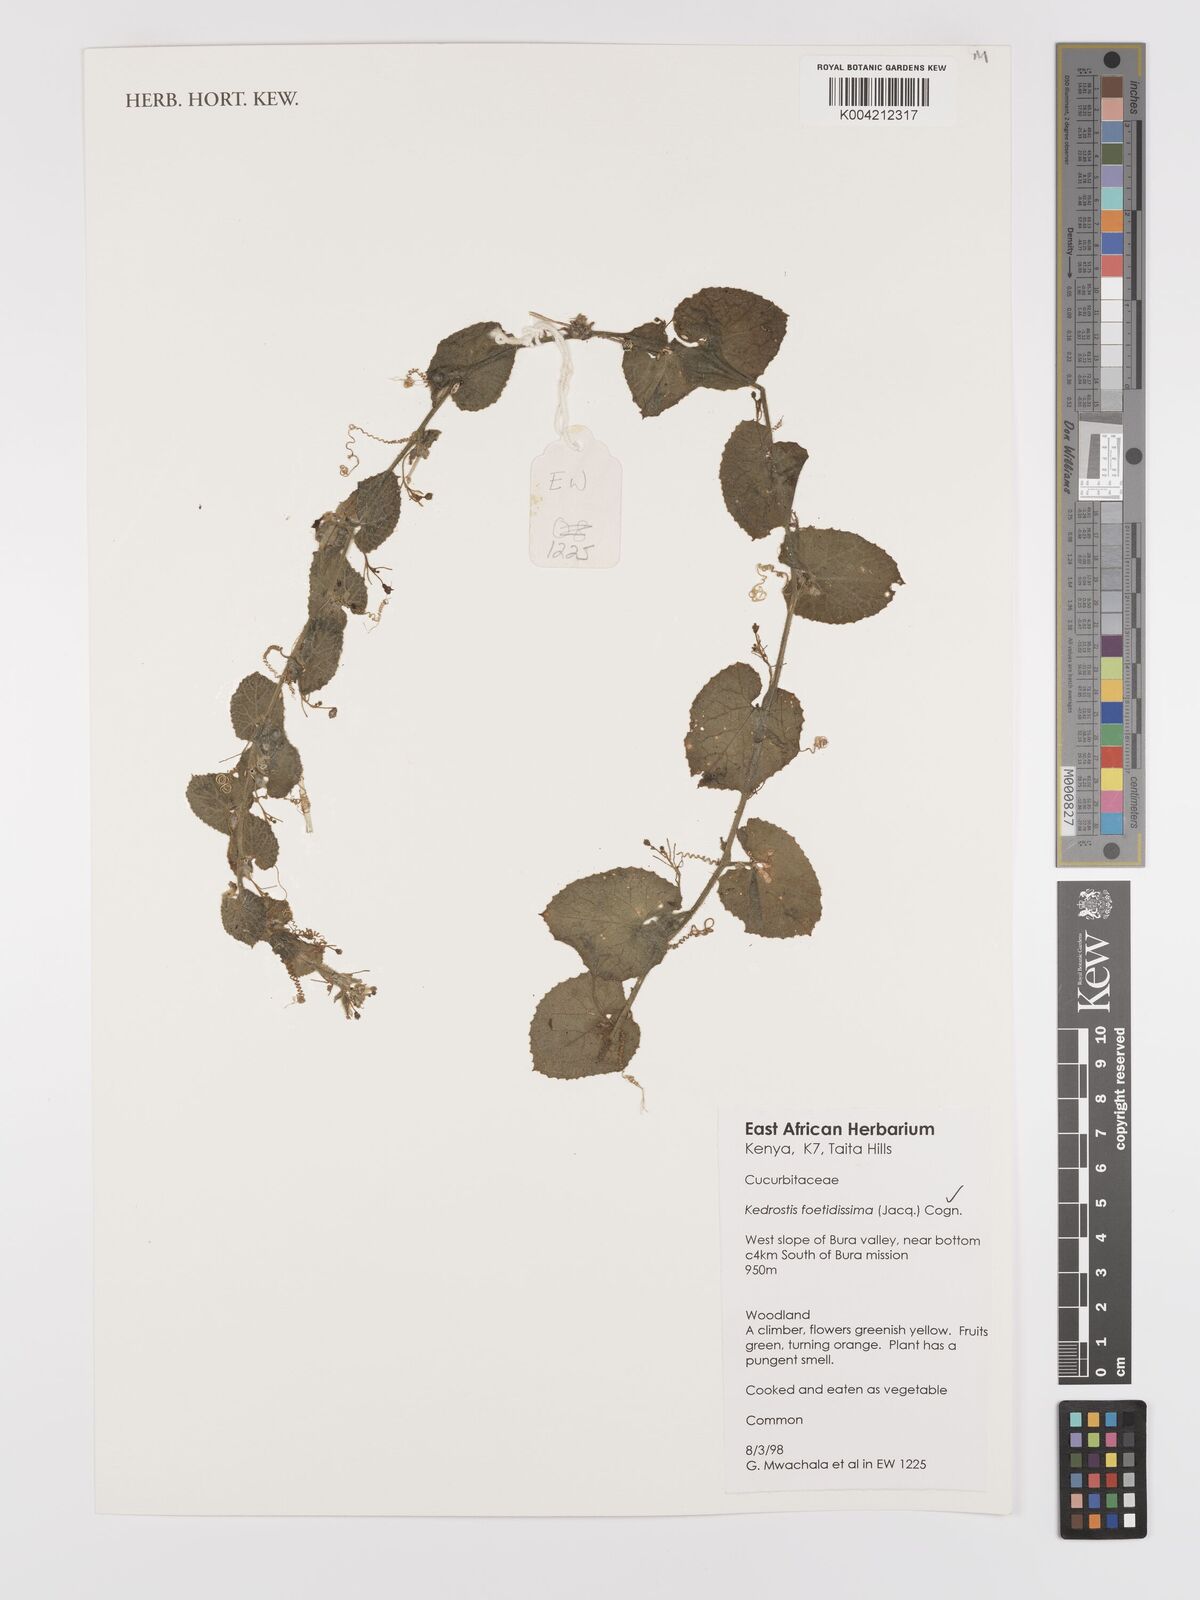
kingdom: Plantae
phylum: Tracheophyta
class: Magnoliopsida
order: Cucurbitales
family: Cucurbitaceae
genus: Kedrostis
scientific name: Kedrostis foetidissima
